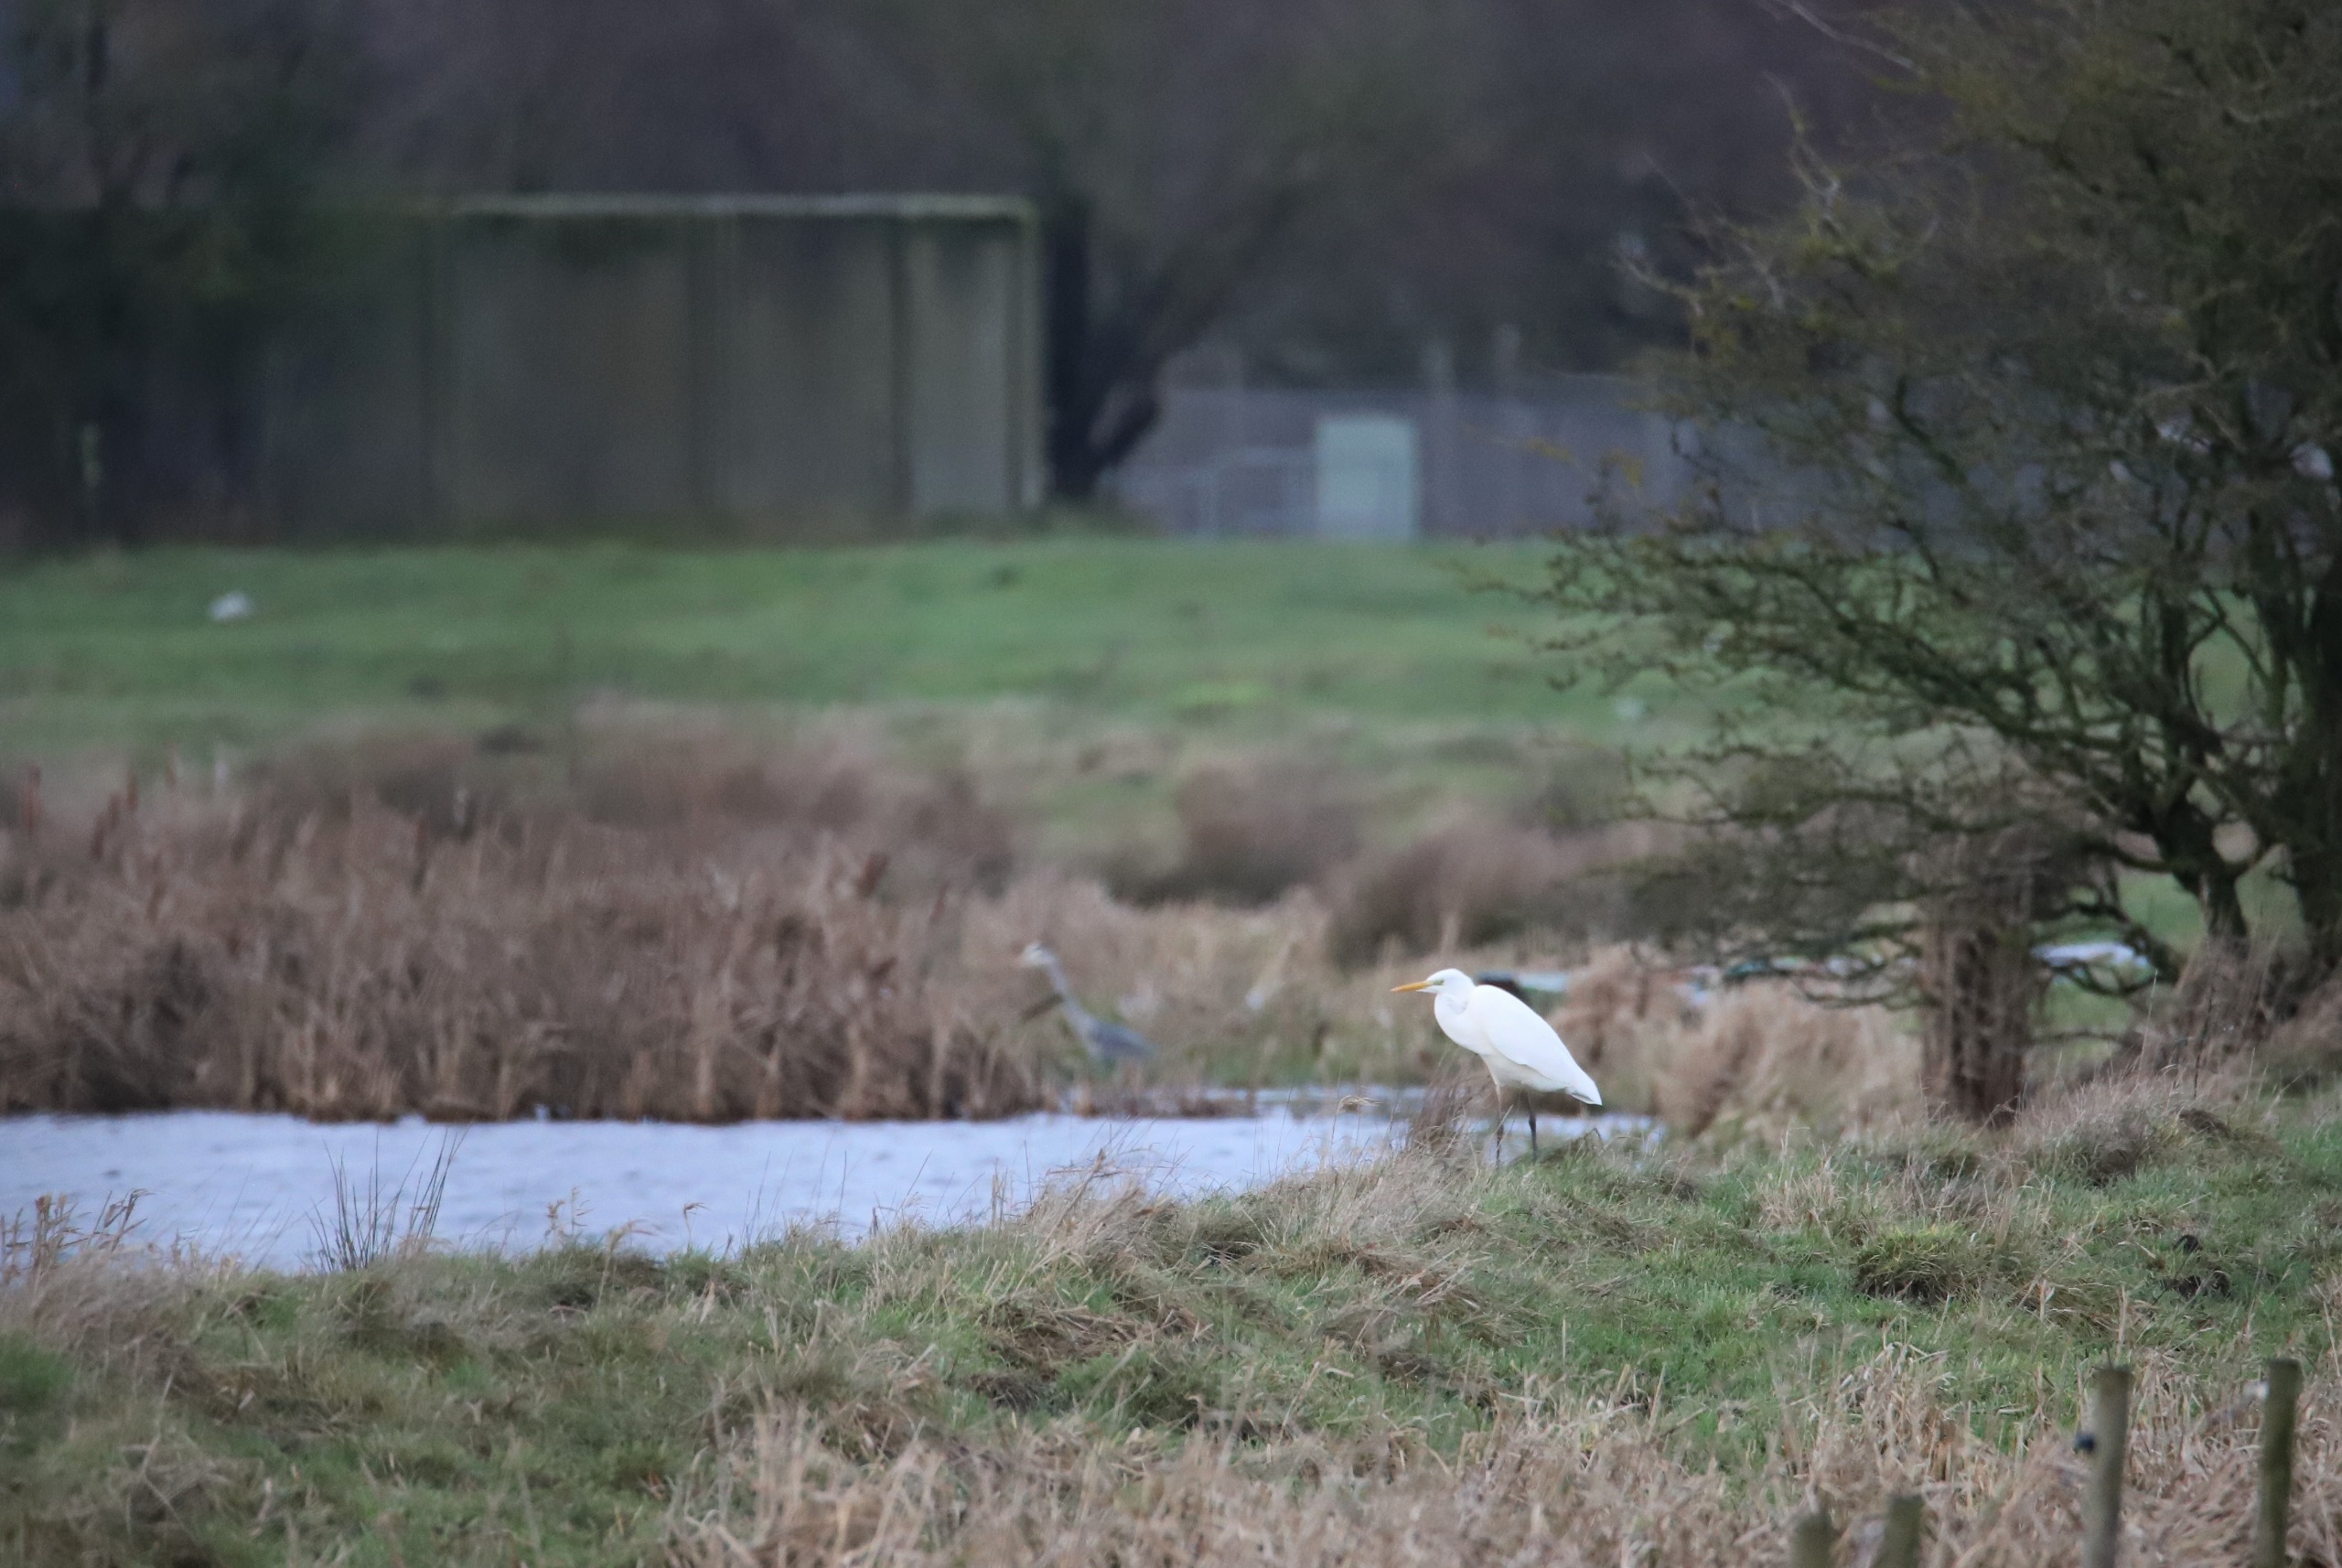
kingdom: Animalia
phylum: Chordata
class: Aves
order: Pelecaniformes
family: Ardeidae
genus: Ardea
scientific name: Ardea alba
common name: Sølvhejre
